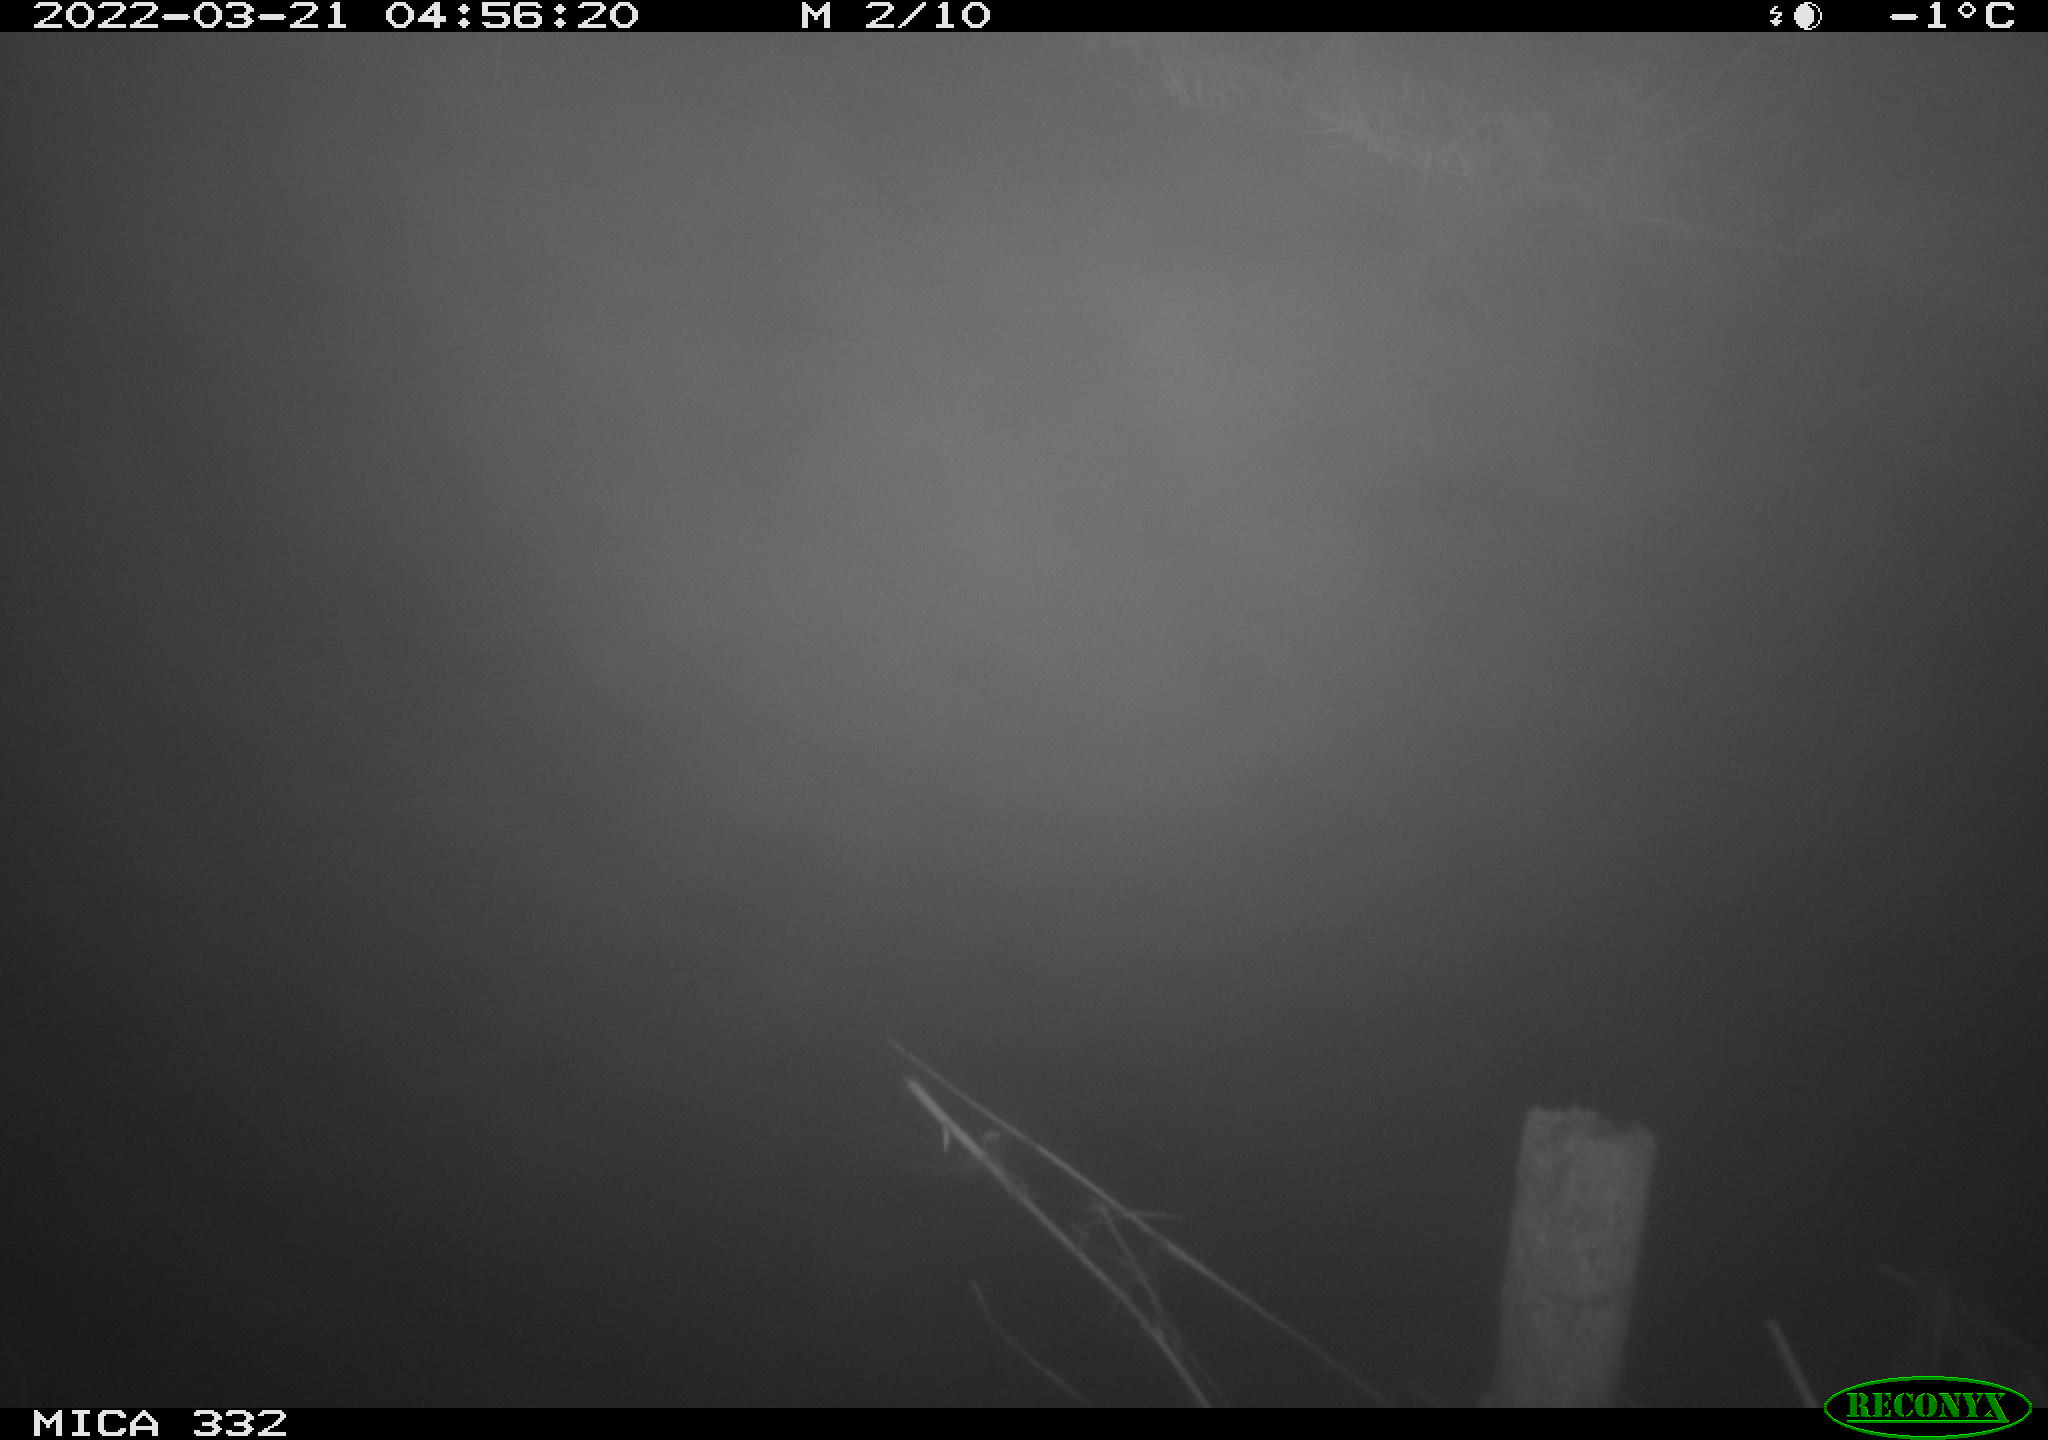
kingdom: Animalia
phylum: Chordata
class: Aves
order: Anseriformes
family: Anatidae
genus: Anas
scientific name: Anas platyrhynchos
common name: Mallard
